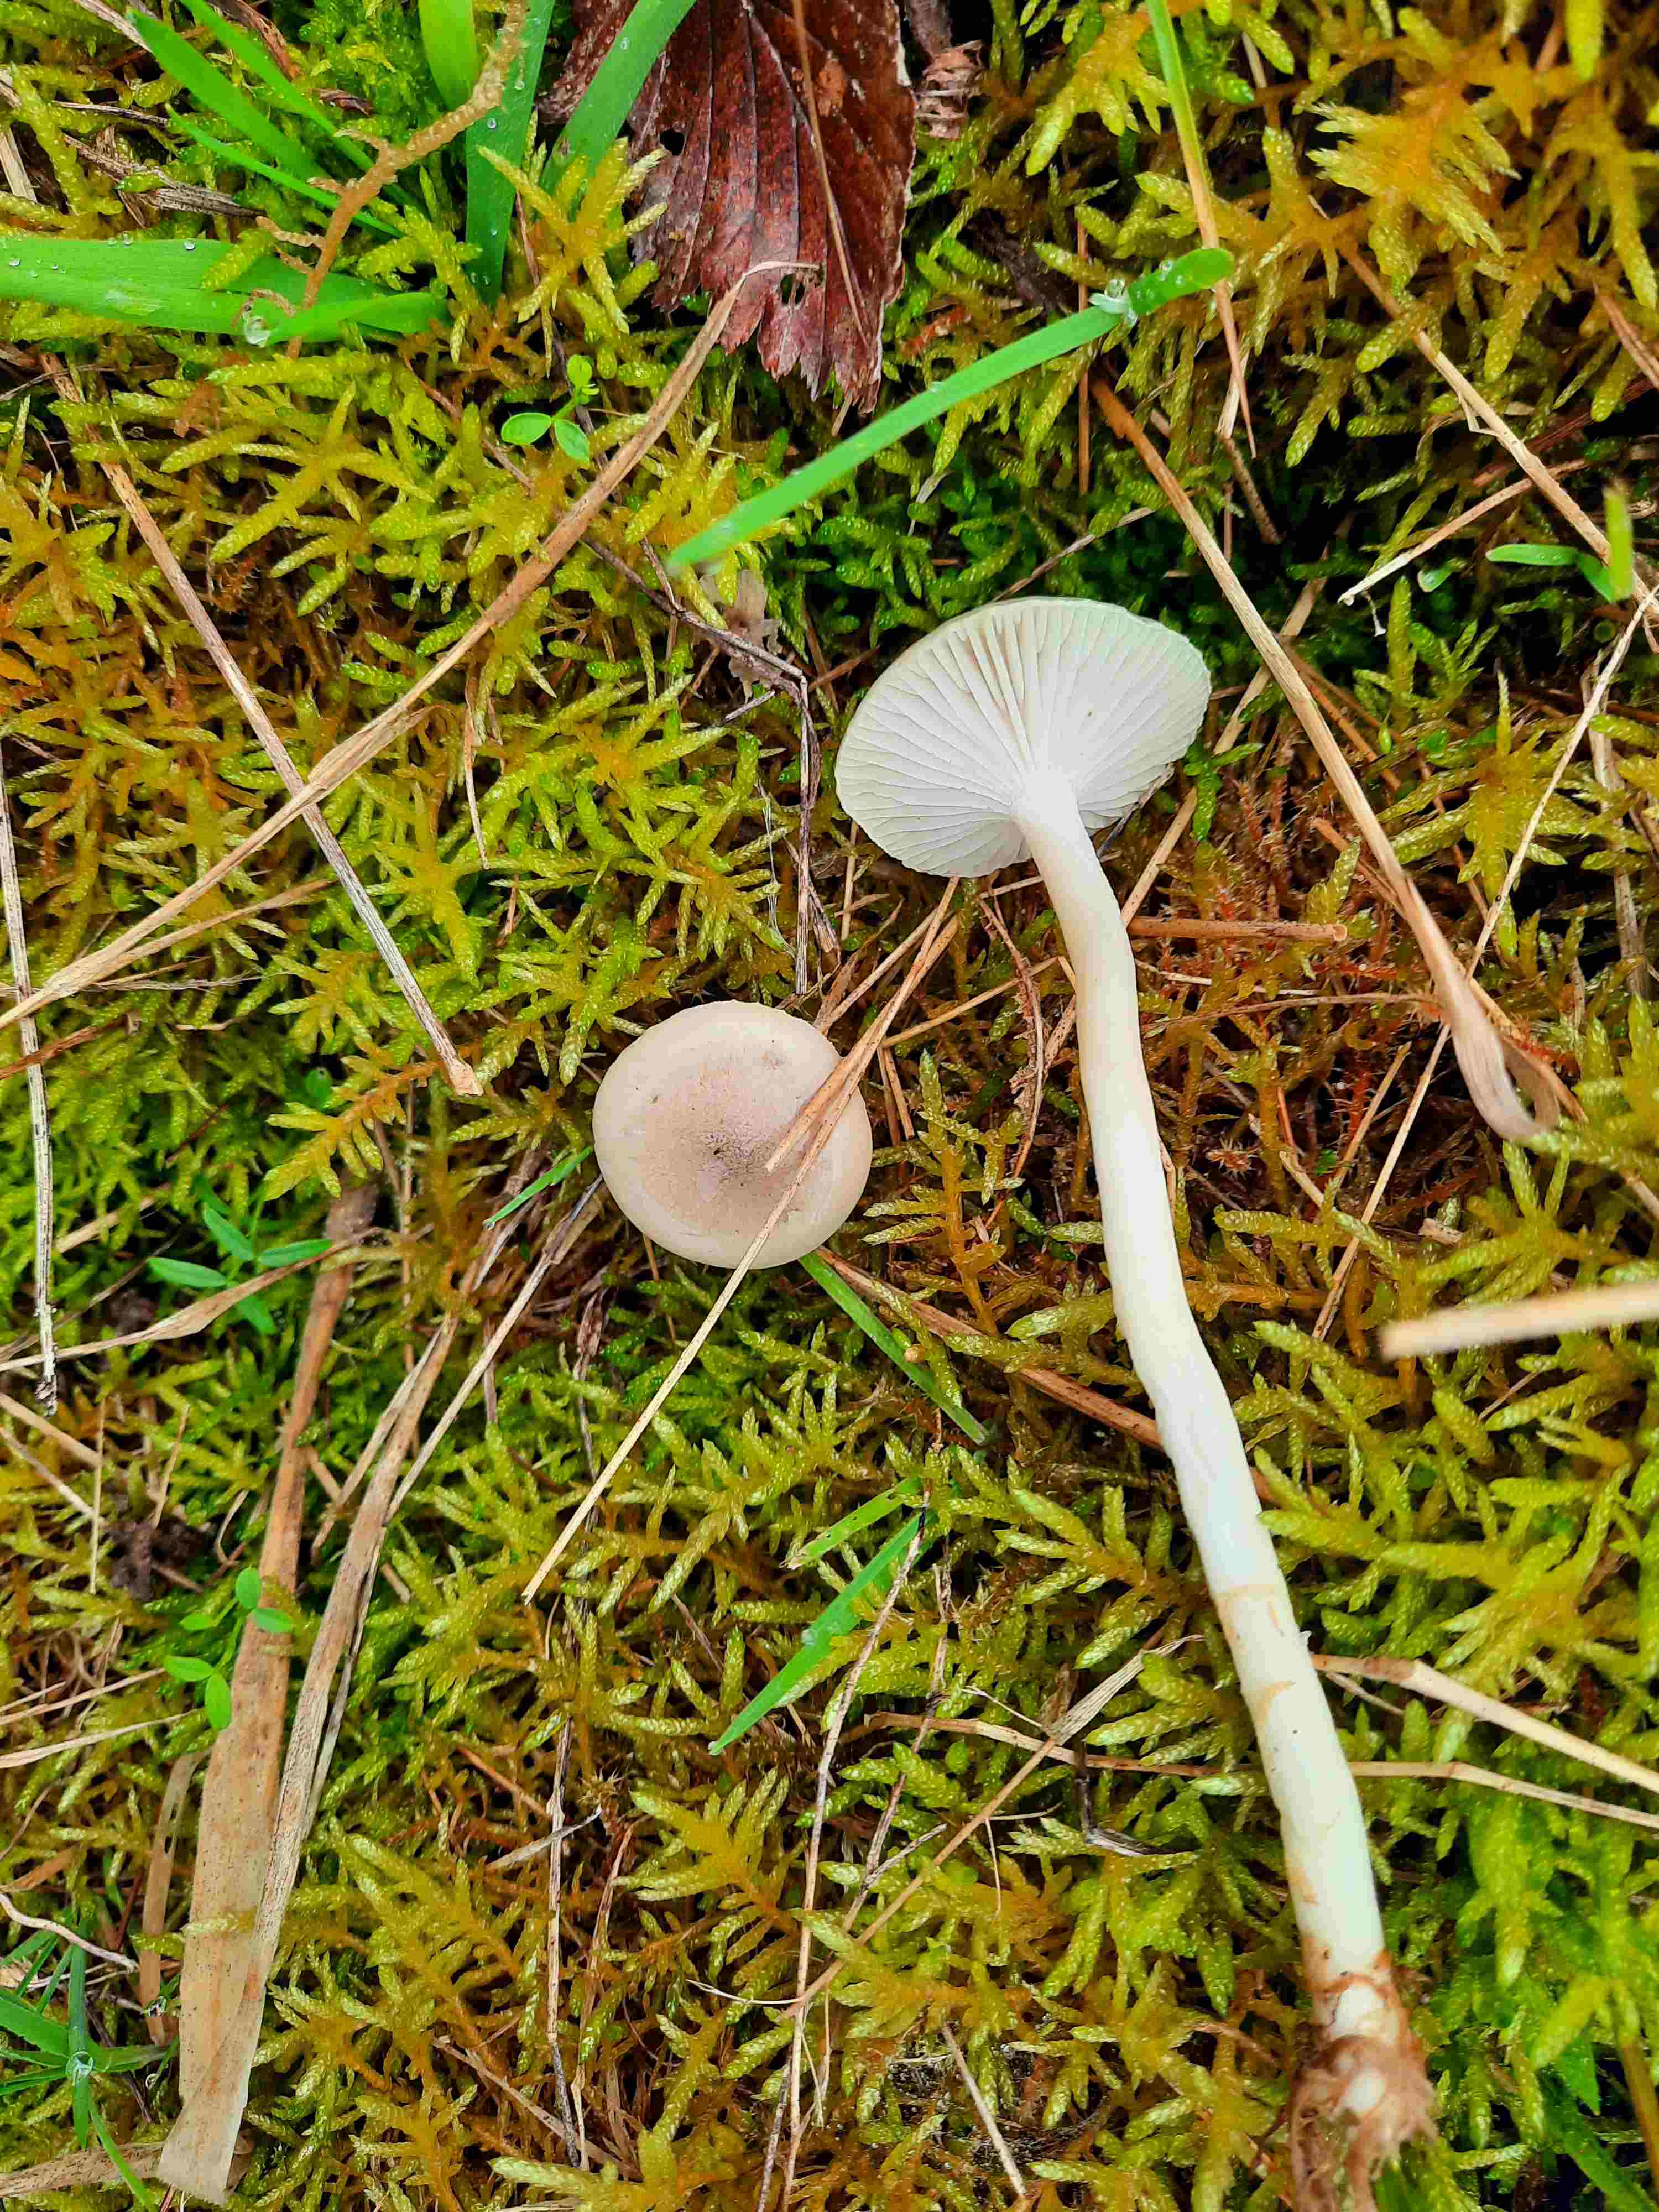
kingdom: Fungi
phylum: Basidiomycota
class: Agaricomycetes
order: Agaricales
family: Hygrophoraceae
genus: Hygrophorus
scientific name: Hygrophorus agathosmus
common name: vellugtende sneglehat
